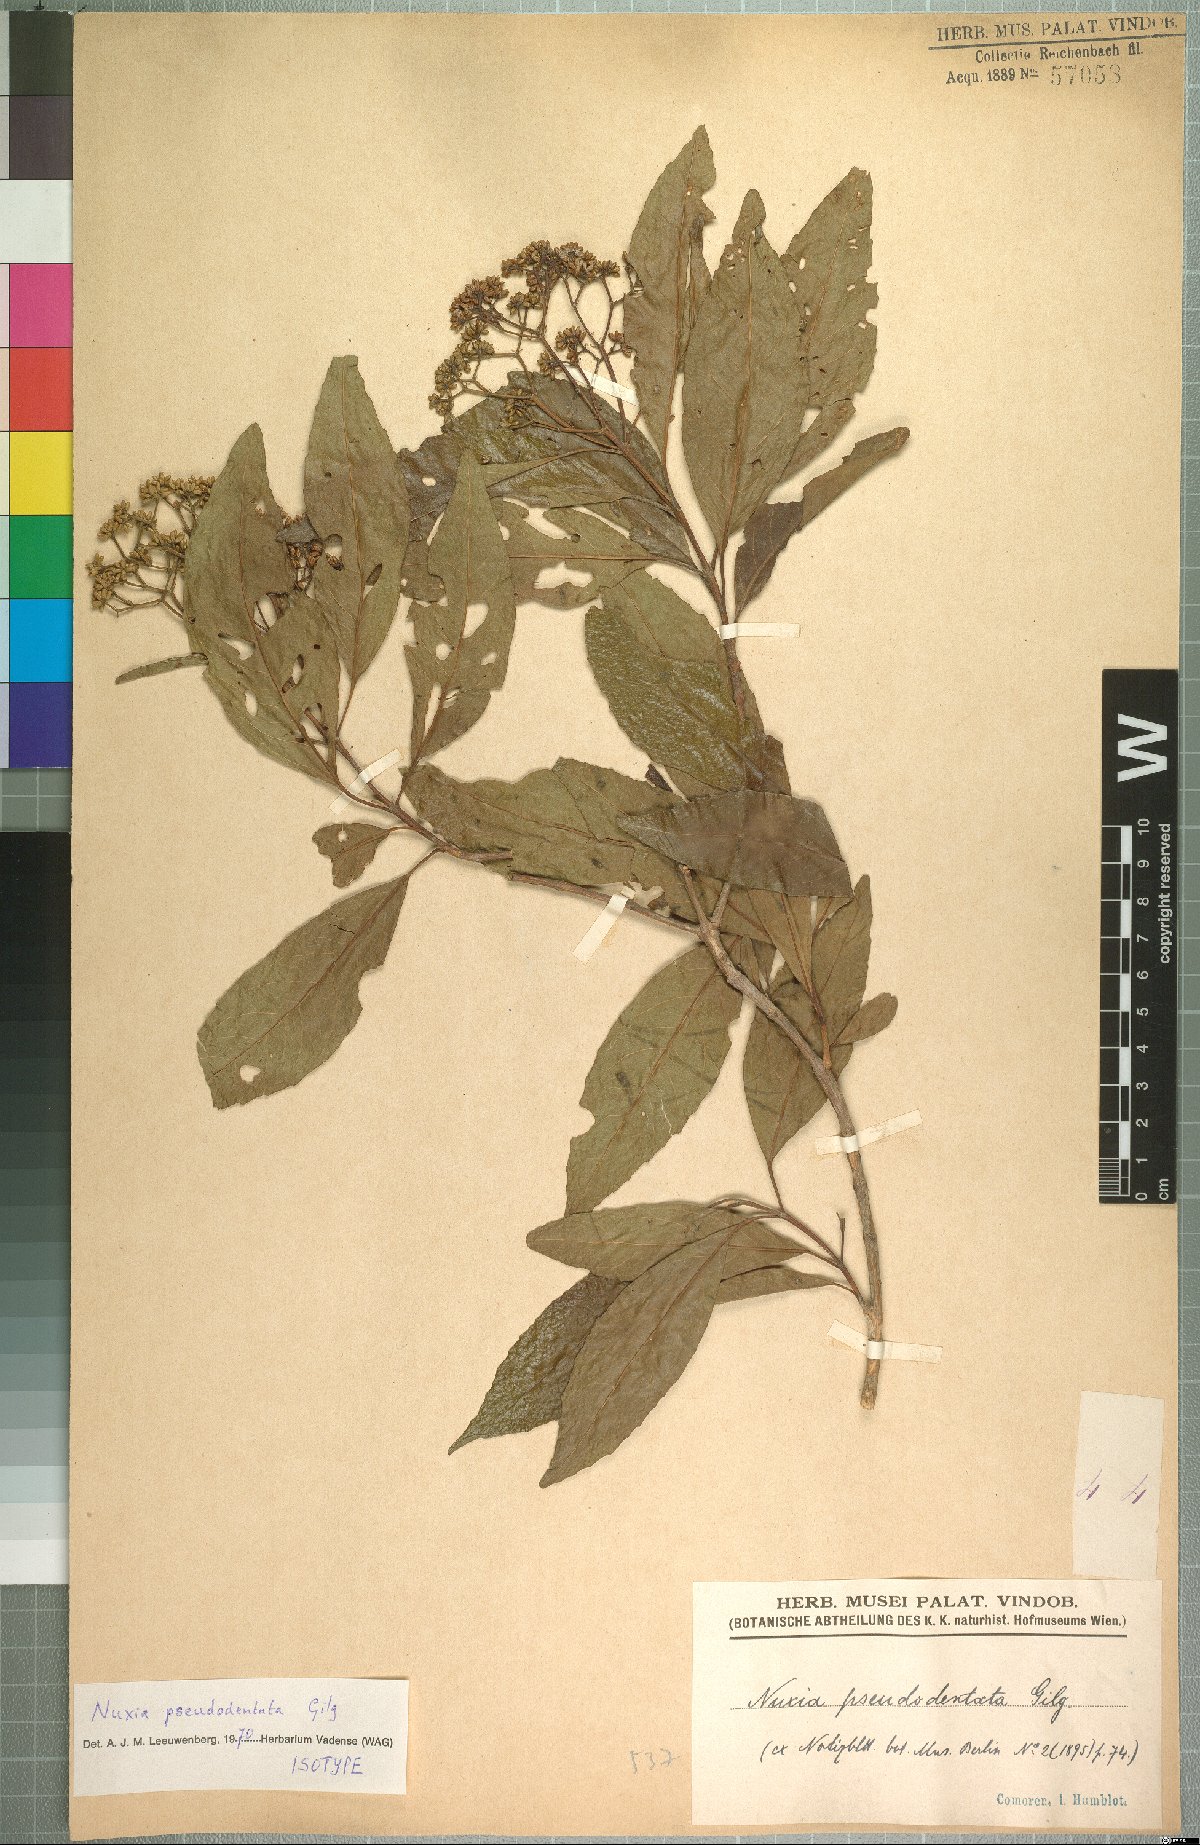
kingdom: Plantae
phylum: Tracheophyta
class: Magnoliopsida
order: Lamiales
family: Stilbaceae
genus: Nuxia
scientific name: Nuxia pseudodentata
